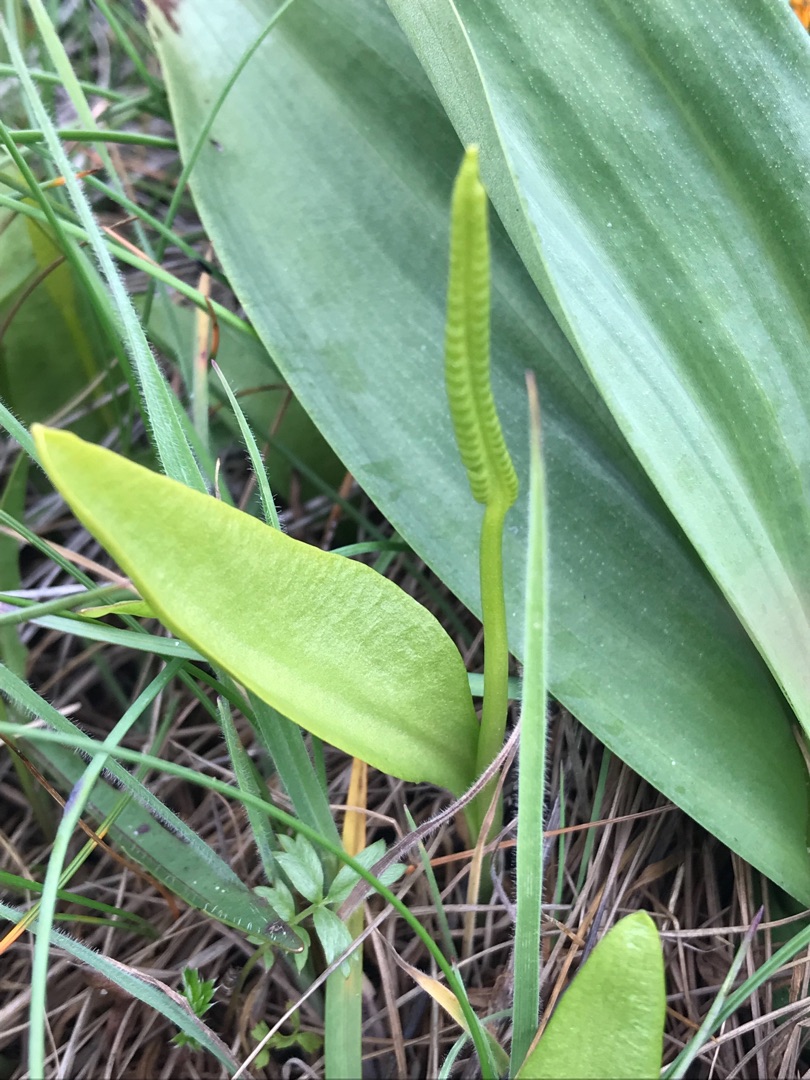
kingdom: Plantae
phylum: Tracheophyta
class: Polypodiopsida
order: Ophioglossales
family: Ophioglossaceae
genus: Ophioglossum
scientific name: Ophioglossum vulgatum
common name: Slangetunge
